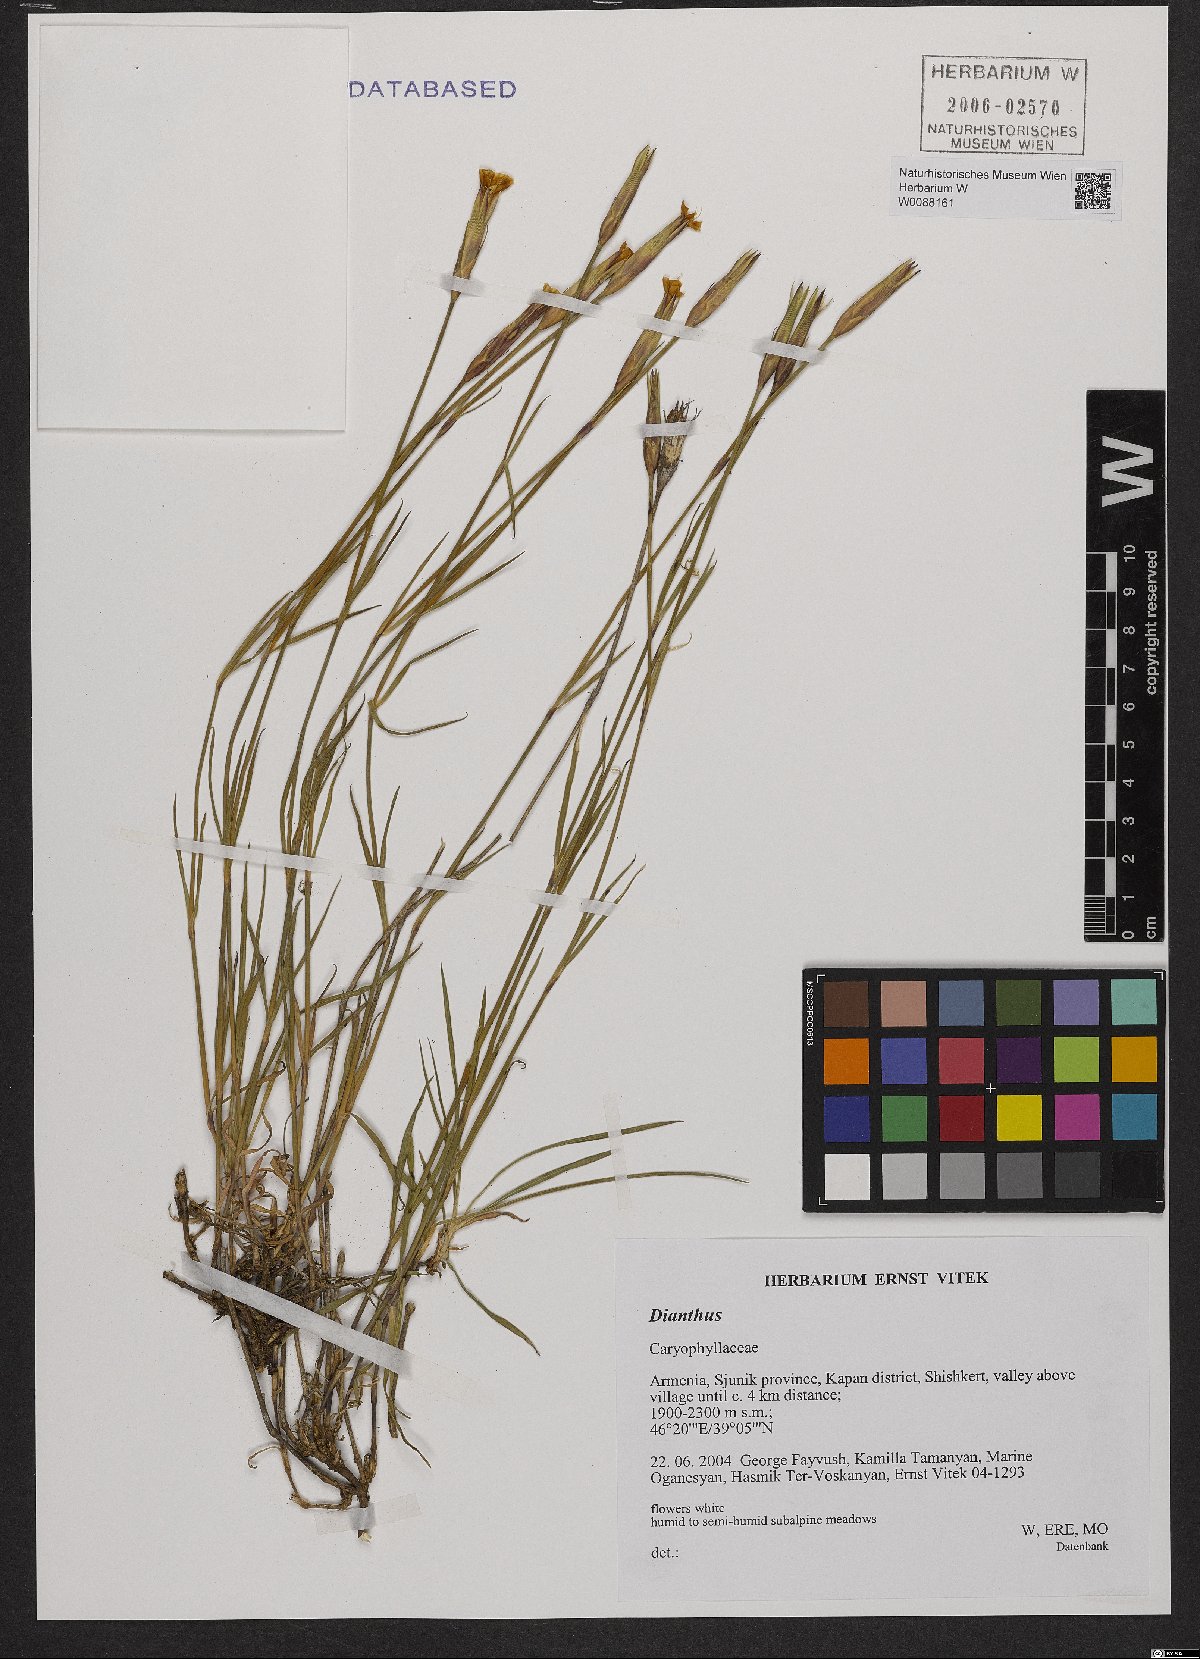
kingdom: Plantae
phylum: Tracheophyta
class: Magnoliopsida
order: Caryophyllales
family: Caryophyllaceae
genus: Dianthus
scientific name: Dianthus
